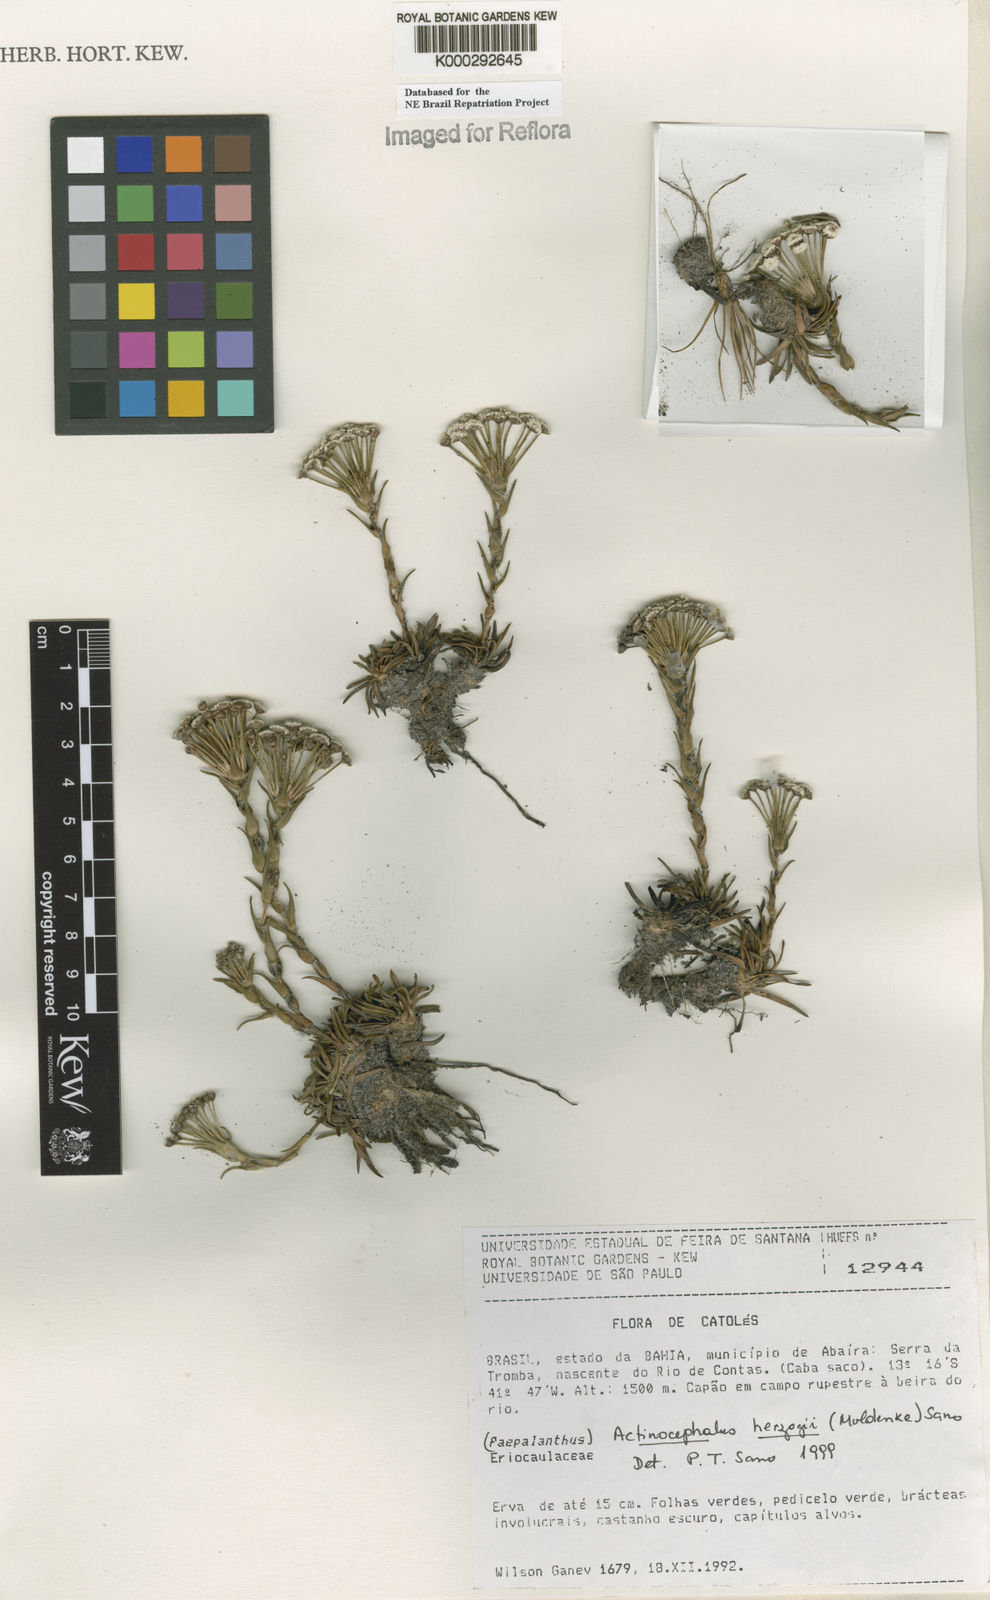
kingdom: Plantae
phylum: Tracheophyta
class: Liliopsida
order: Poales
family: Eriocaulaceae
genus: Paepalanthus
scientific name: Paepalanthus herzogii
